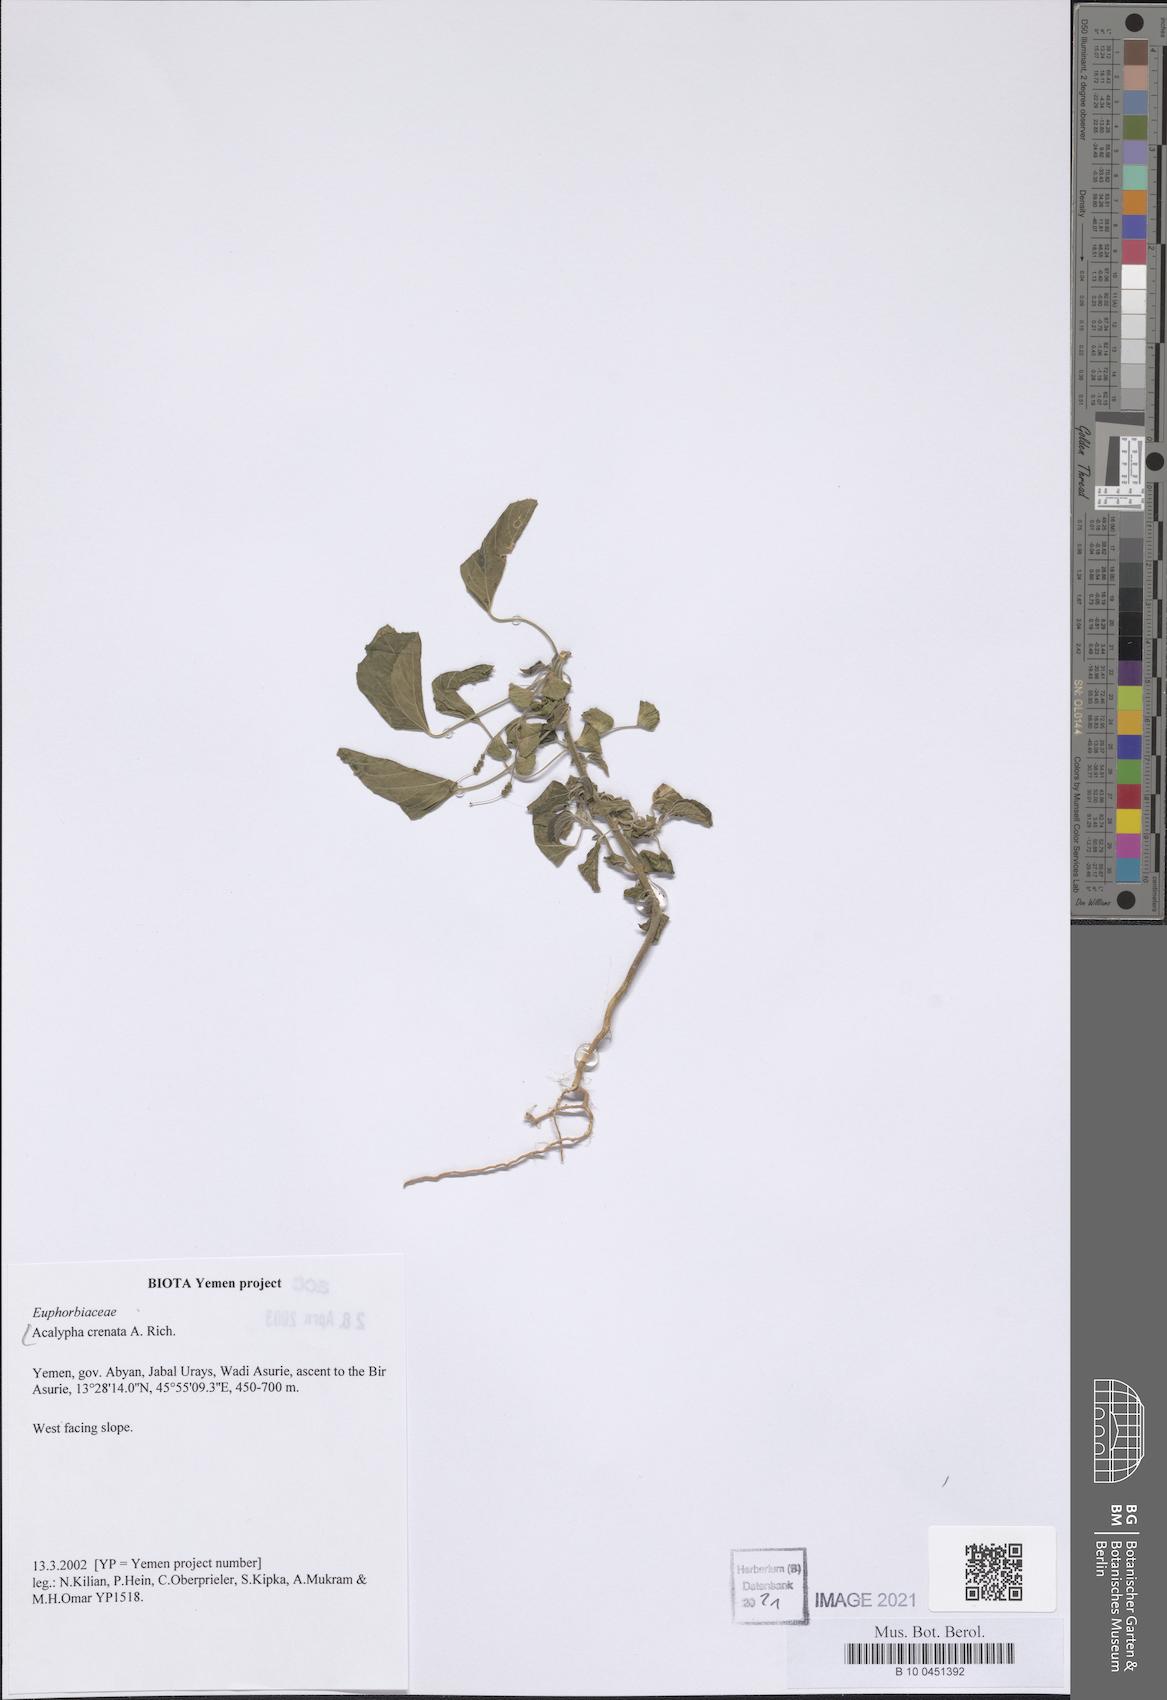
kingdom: Plantae
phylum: Tracheophyta
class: Magnoliopsida
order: Malpighiales
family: Euphorbiaceae
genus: Acalypha
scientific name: Acalypha crenata
